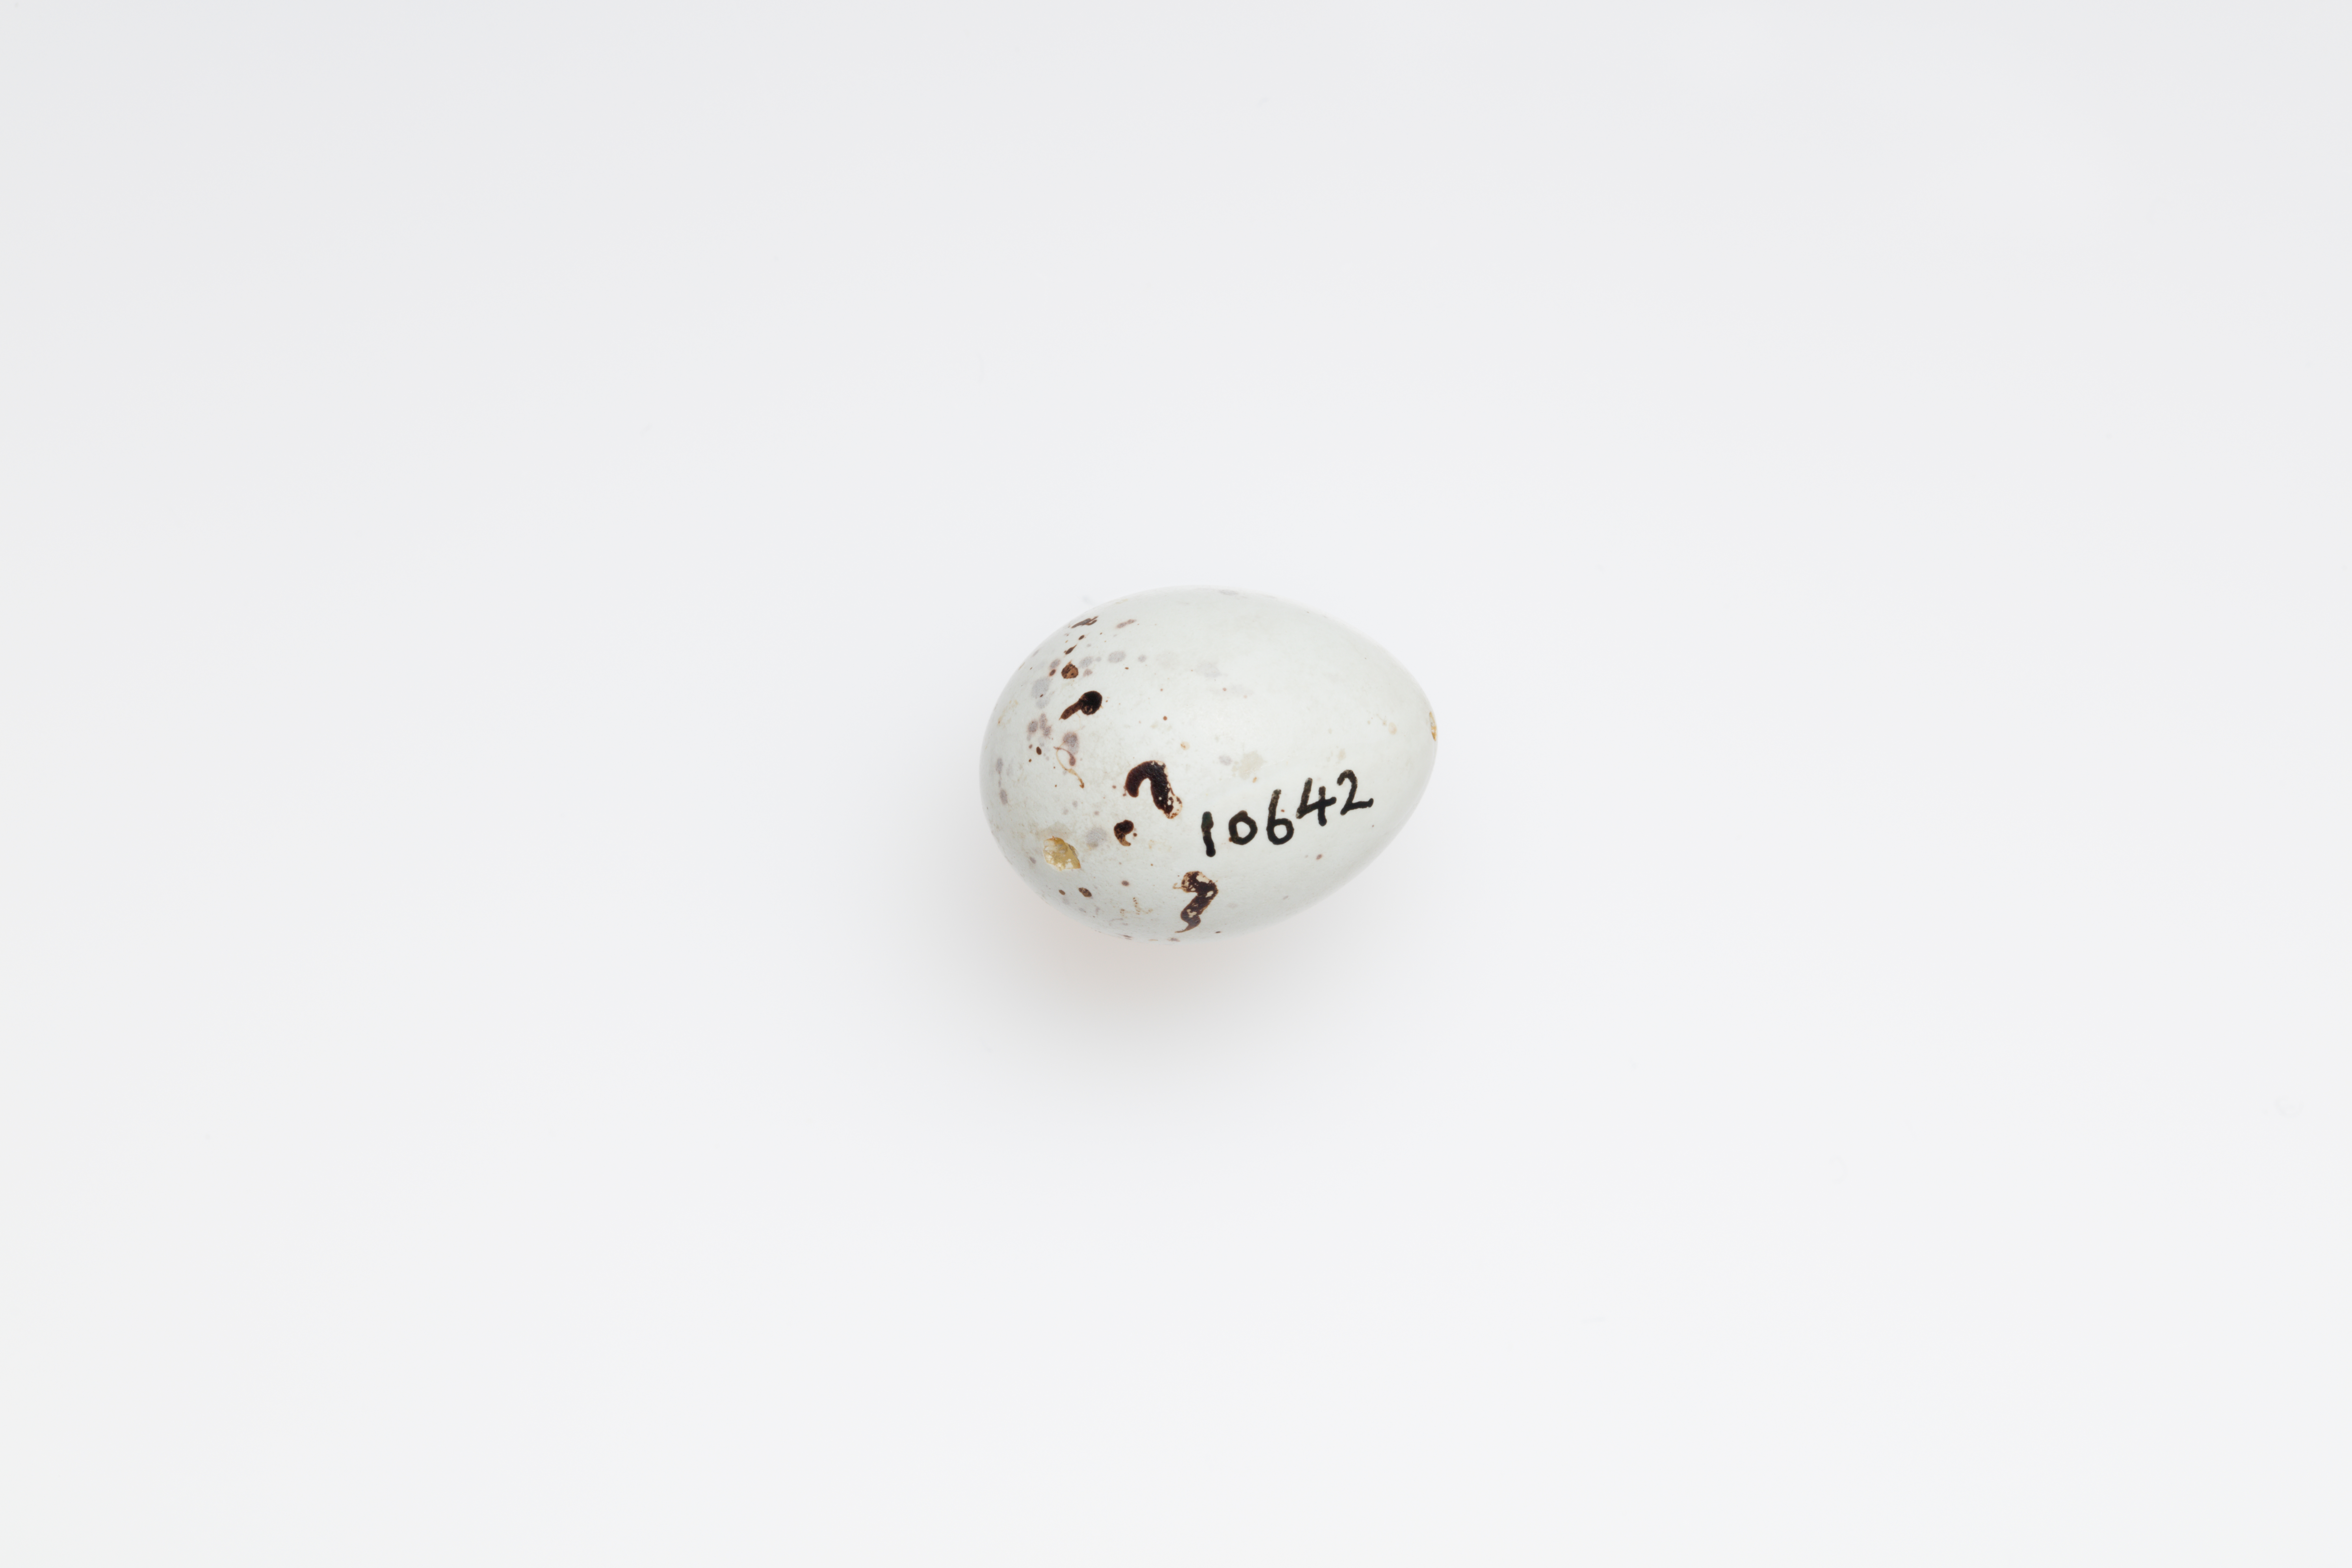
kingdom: Animalia
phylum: Chordata
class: Aves
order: Passeriformes
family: Fringillidae
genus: Pyrrhula
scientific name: Pyrrhula pyrrhula
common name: Eurasian bullfinch
